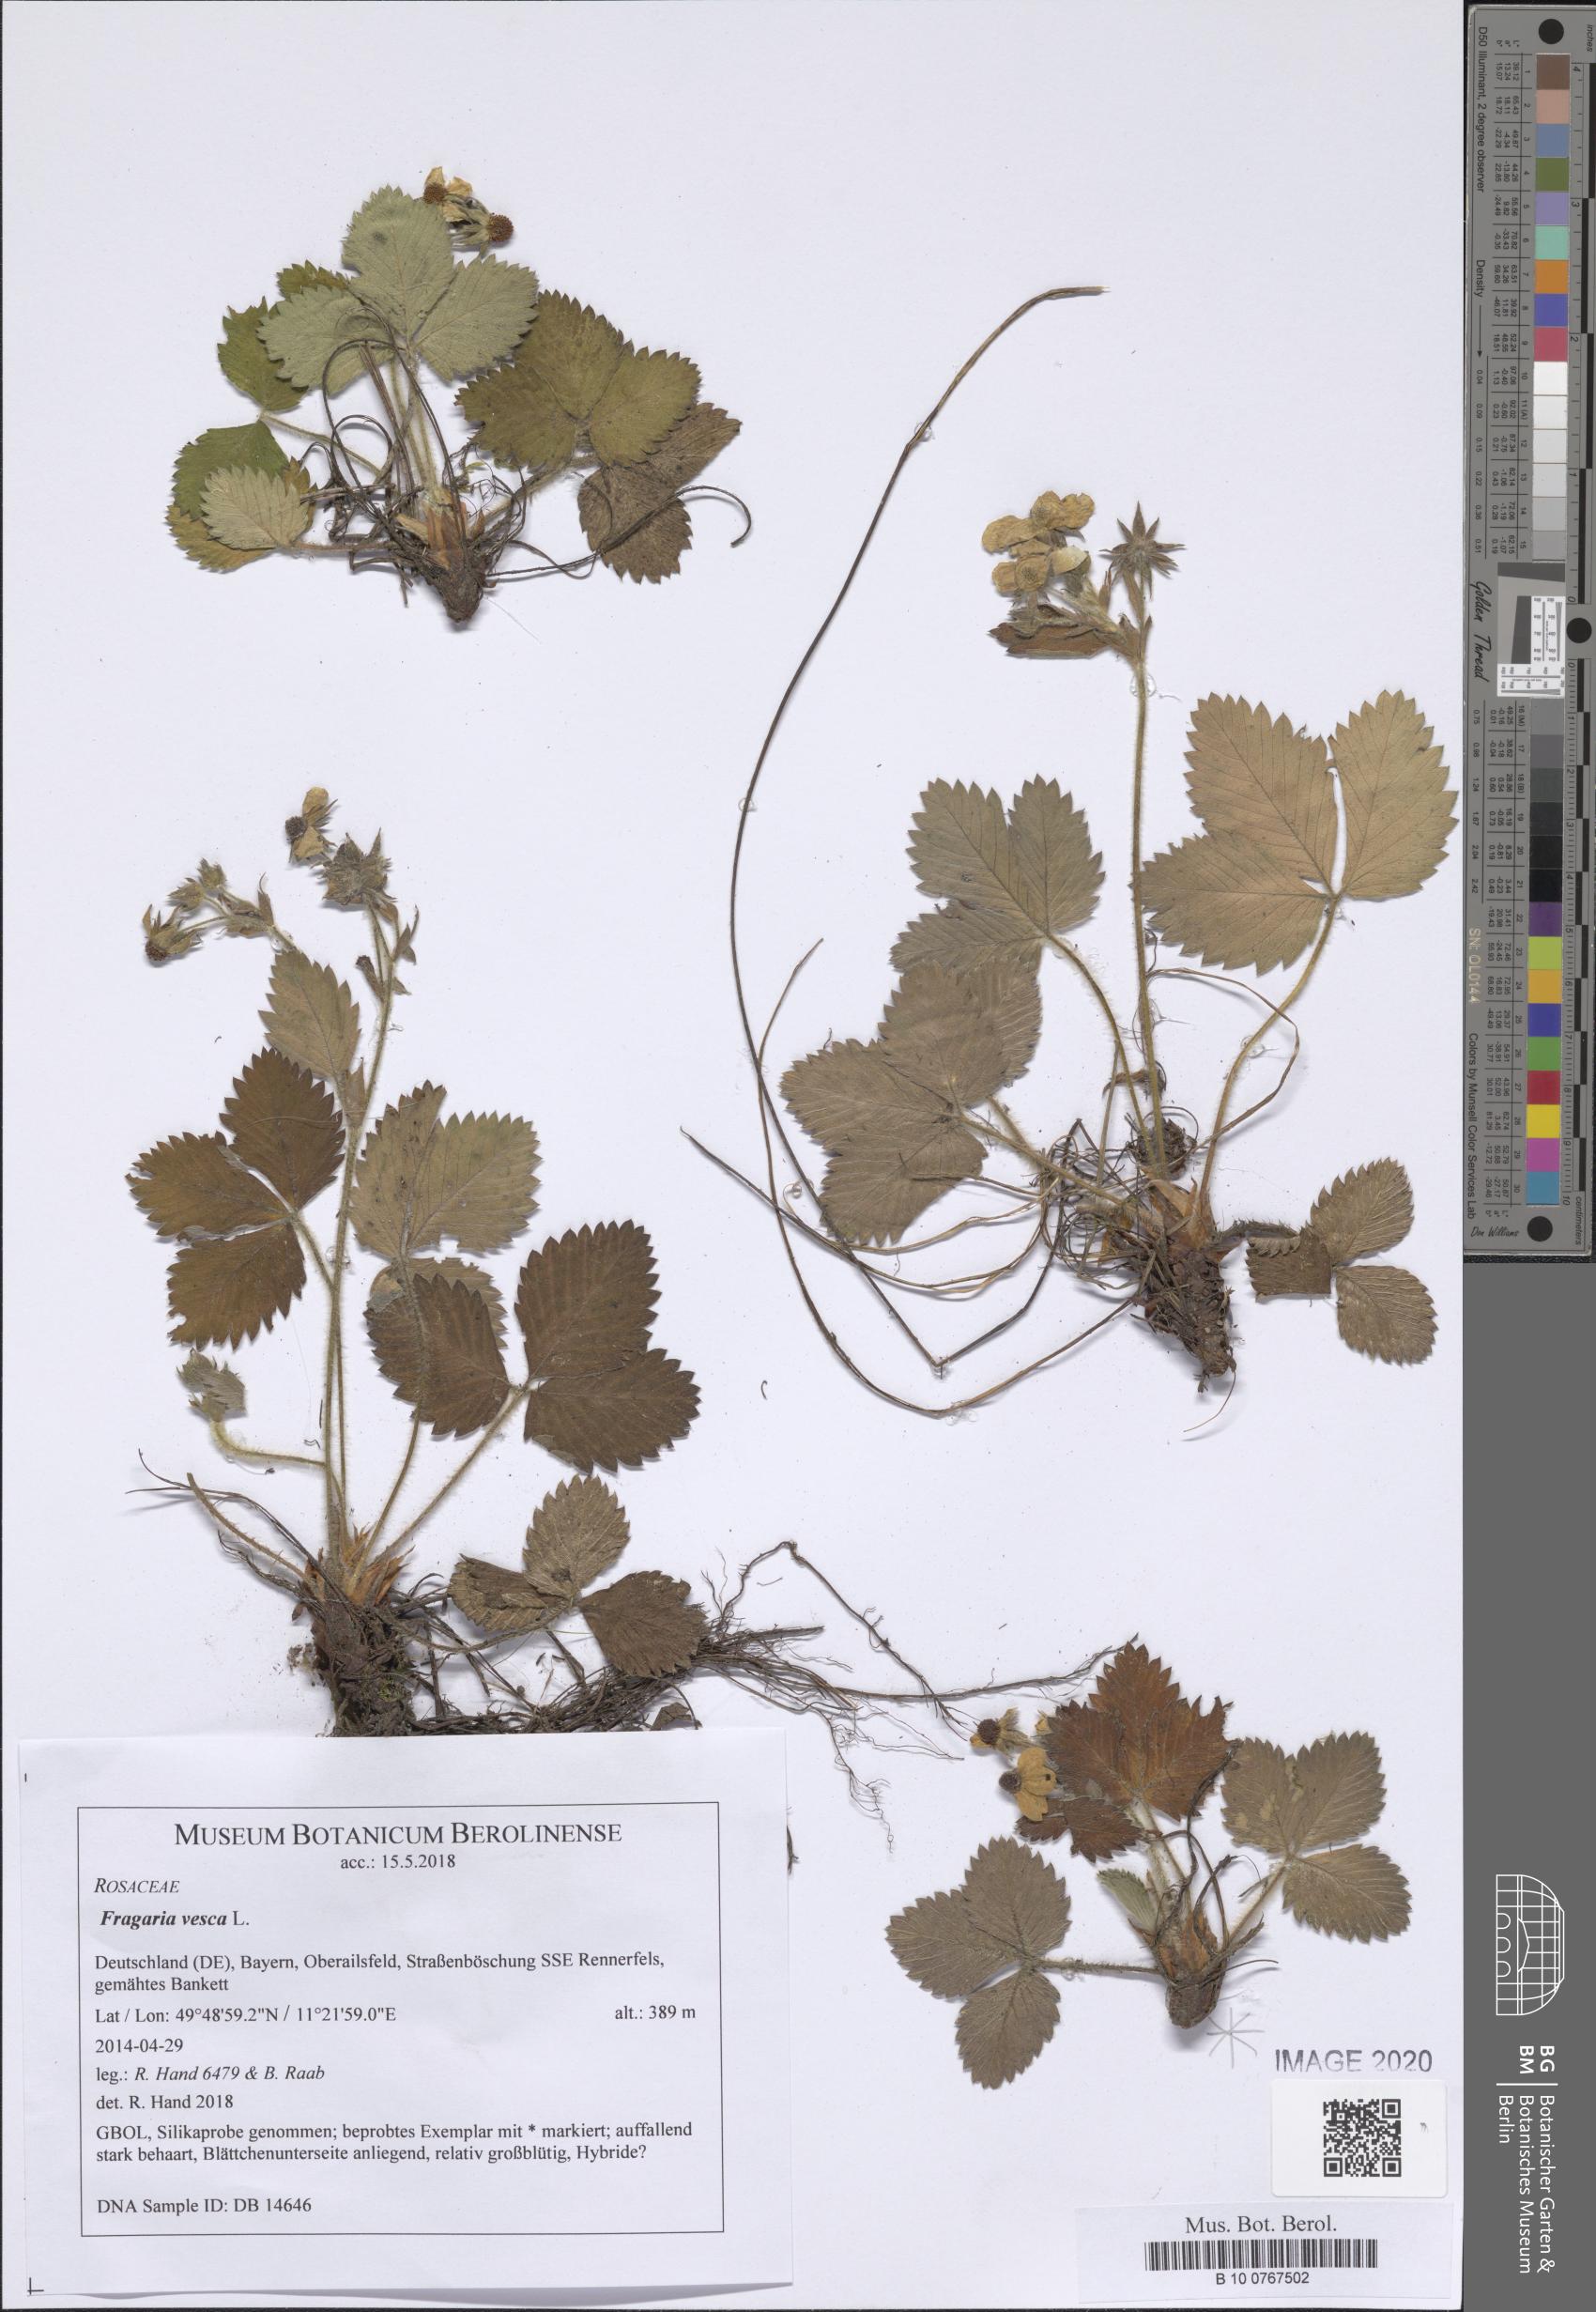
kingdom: Plantae
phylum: Tracheophyta
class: Magnoliopsida
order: Rosales
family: Rosaceae
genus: Fragaria
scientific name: Fragaria vesca
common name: Wild strawberry
